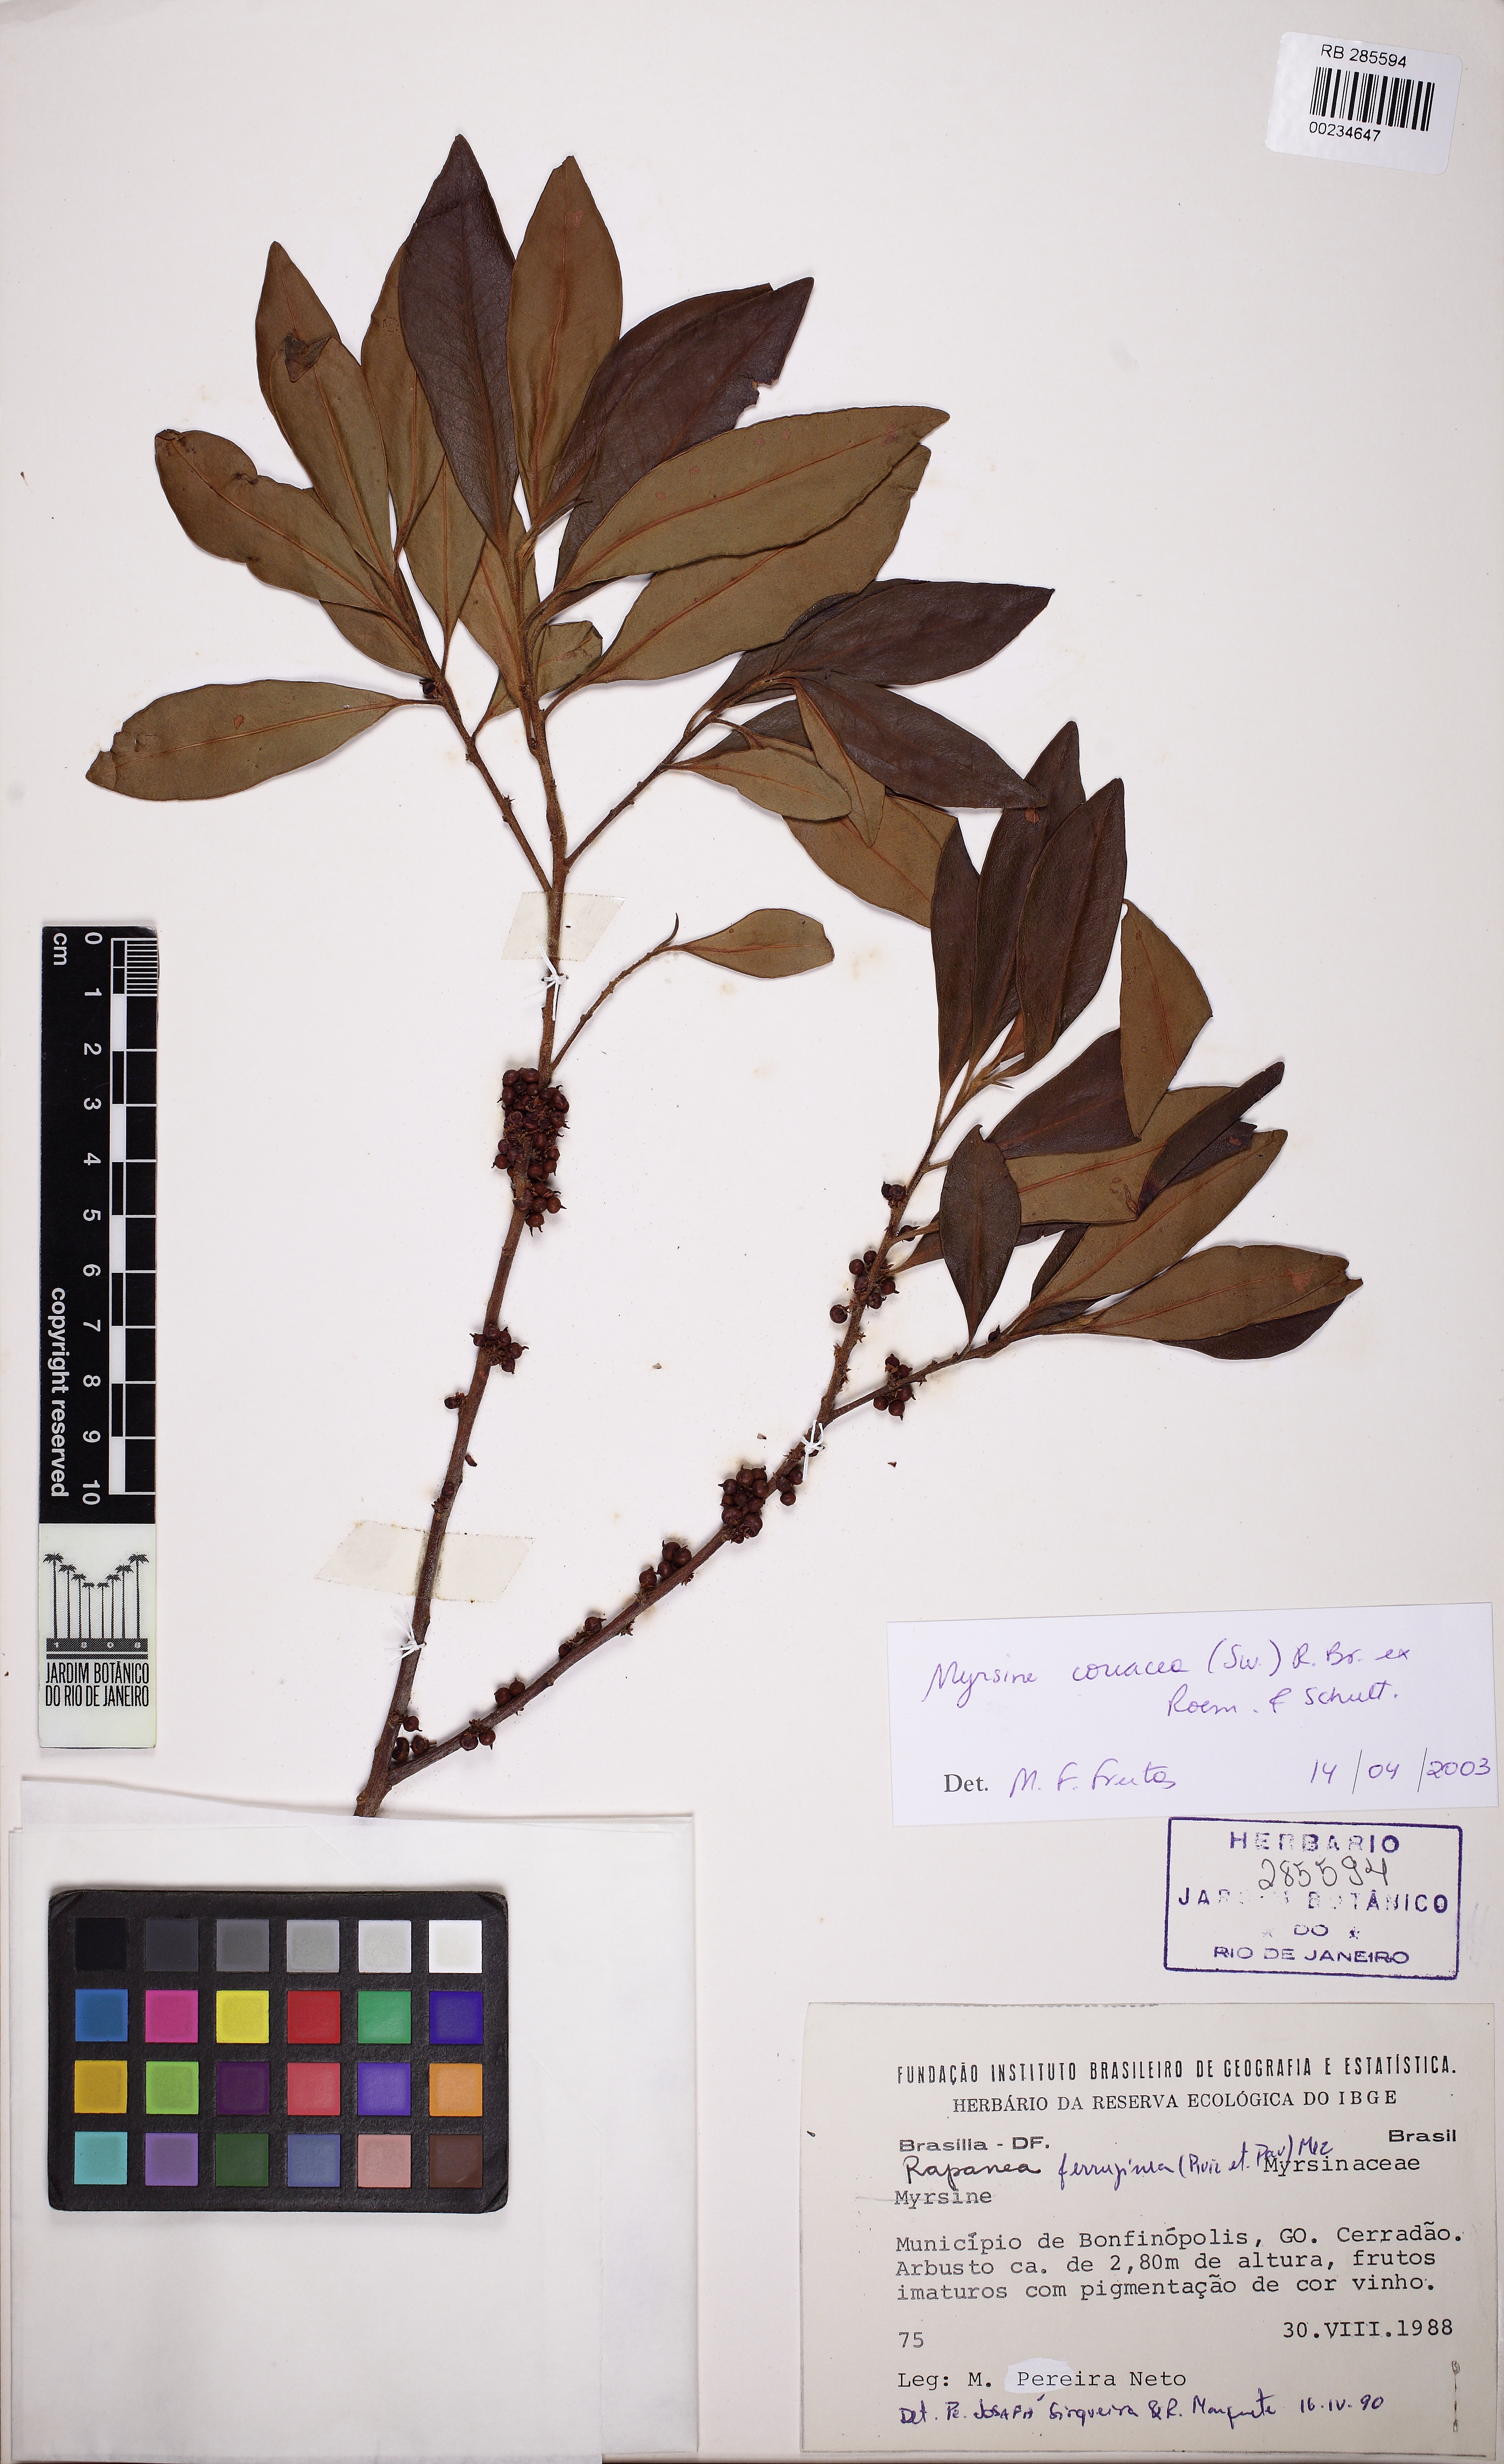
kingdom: Plantae
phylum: Tracheophyta
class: Magnoliopsida
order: Ericales
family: Primulaceae
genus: Myrsine
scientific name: Myrsine coriacea
